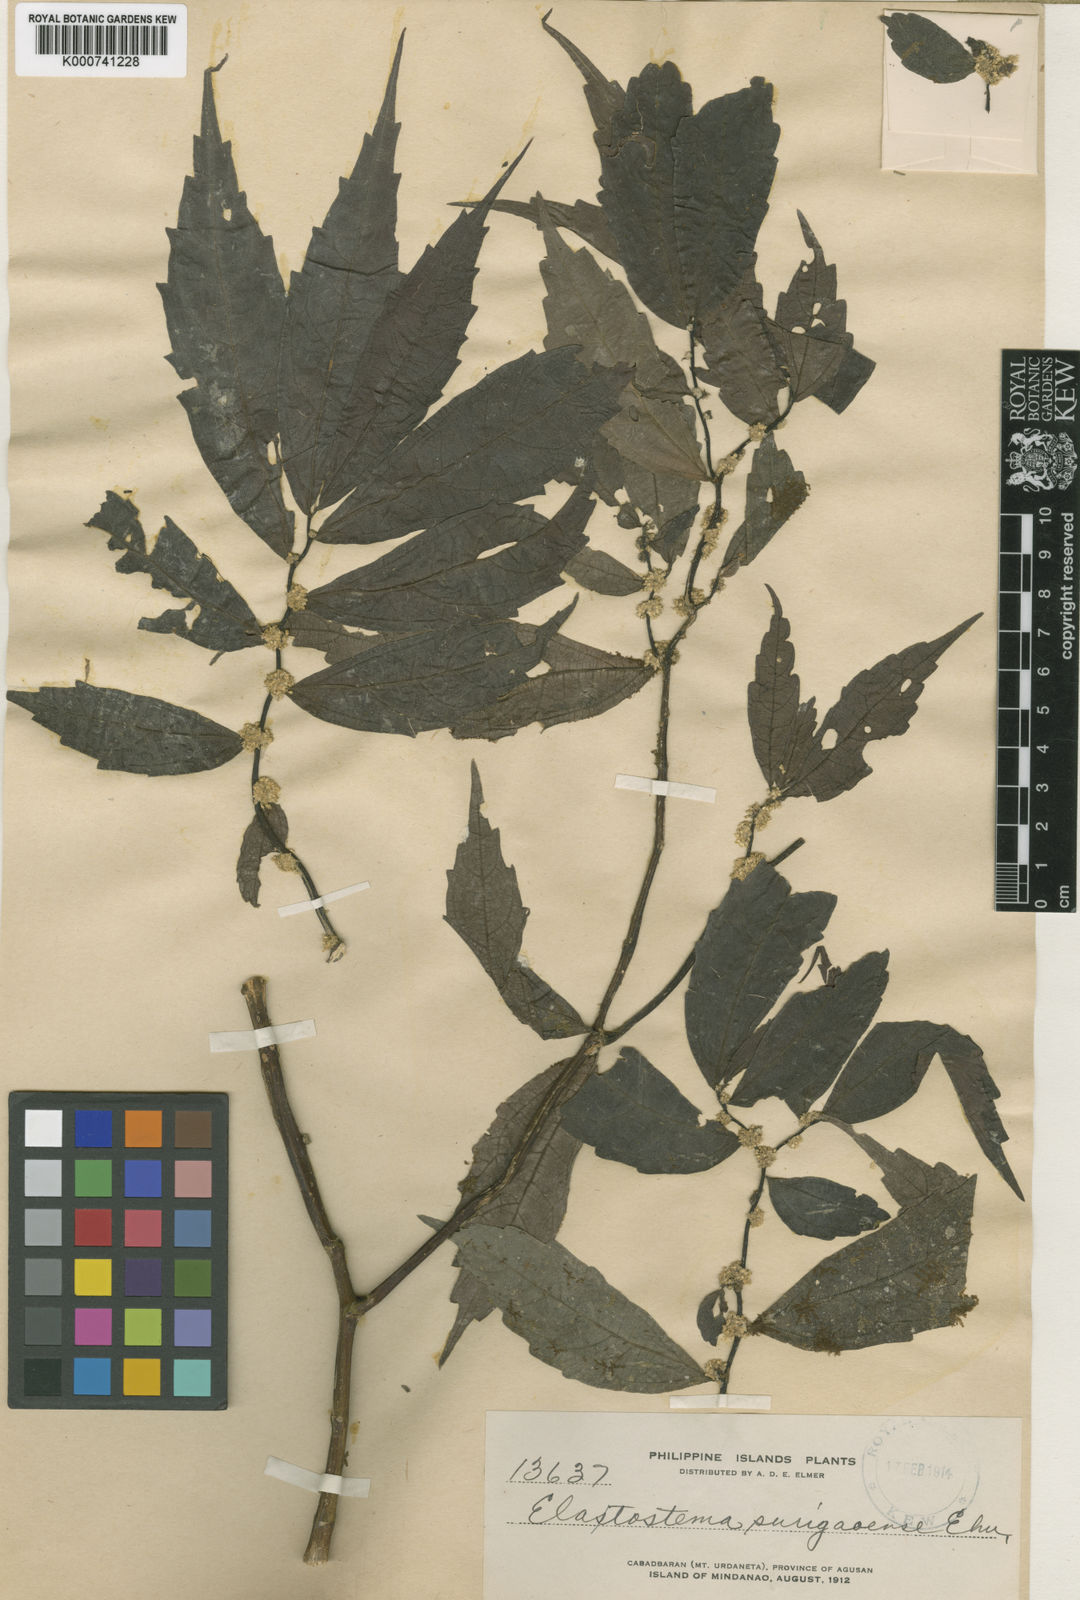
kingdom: Plantae
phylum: Tracheophyta
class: Magnoliopsida
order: Rosales
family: Urticaceae
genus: Elatostema
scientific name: Elatostema surigaoense
